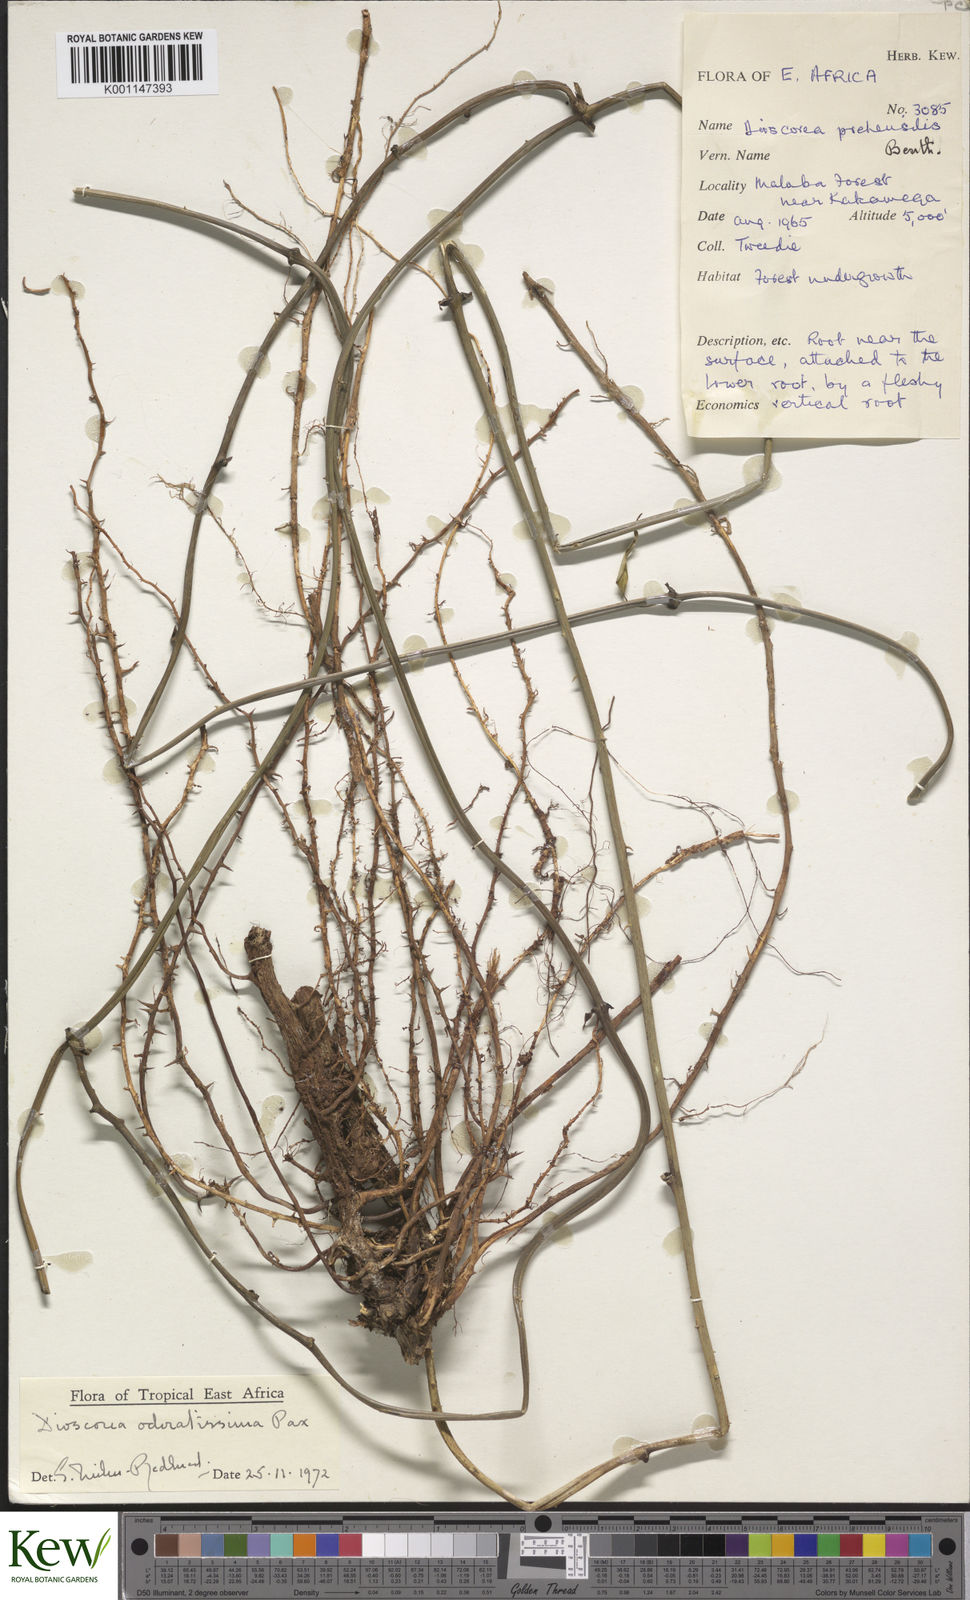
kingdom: Plantae
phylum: Tracheophyta
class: Liliopsida
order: Dioscoreales
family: Dioscoreaceae
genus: Dioscorea
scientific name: Dioscorea praehensilis
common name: Bush yam
